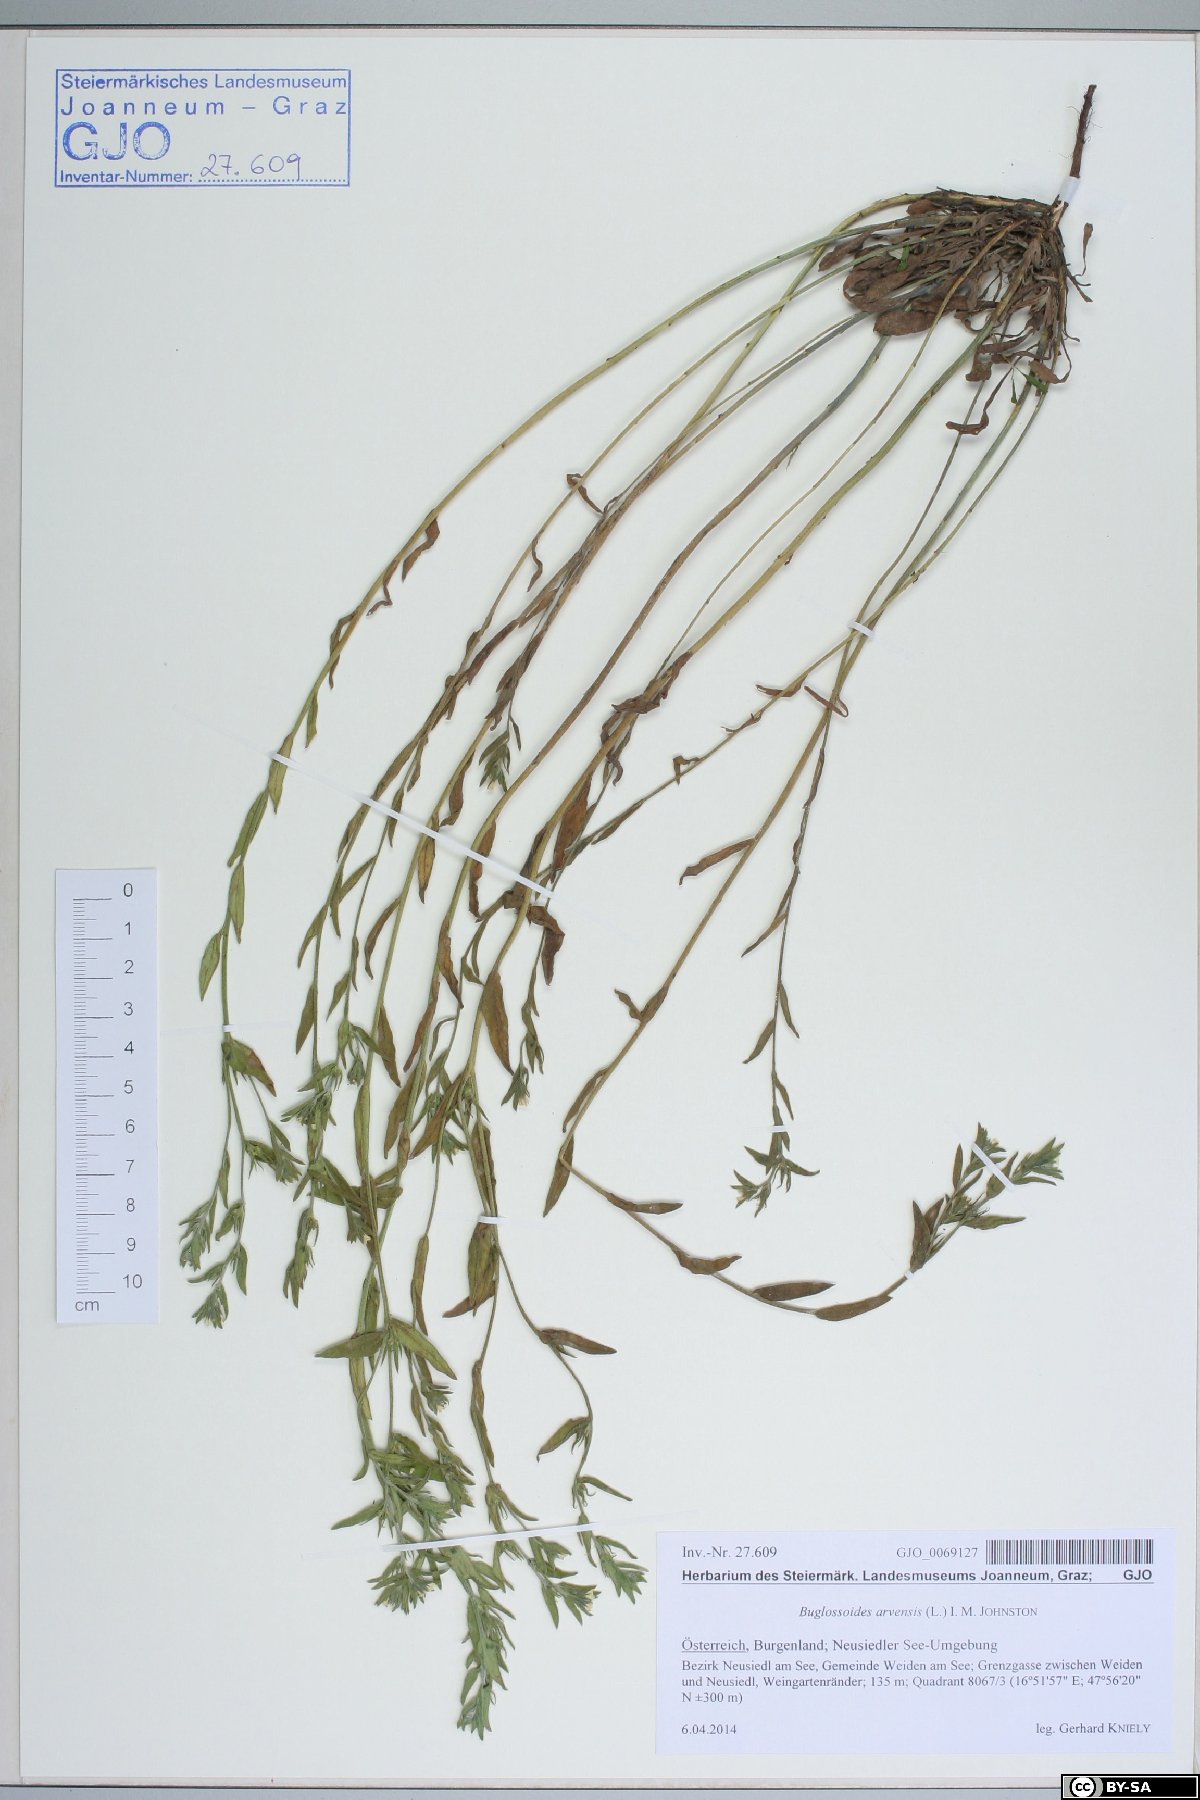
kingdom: Plantae
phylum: Tracheophyta
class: Magnoliopsida
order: Boraginales
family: Boraginaceae
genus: Buglossoides
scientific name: Buglossoides arvensis
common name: Corn gromwell
